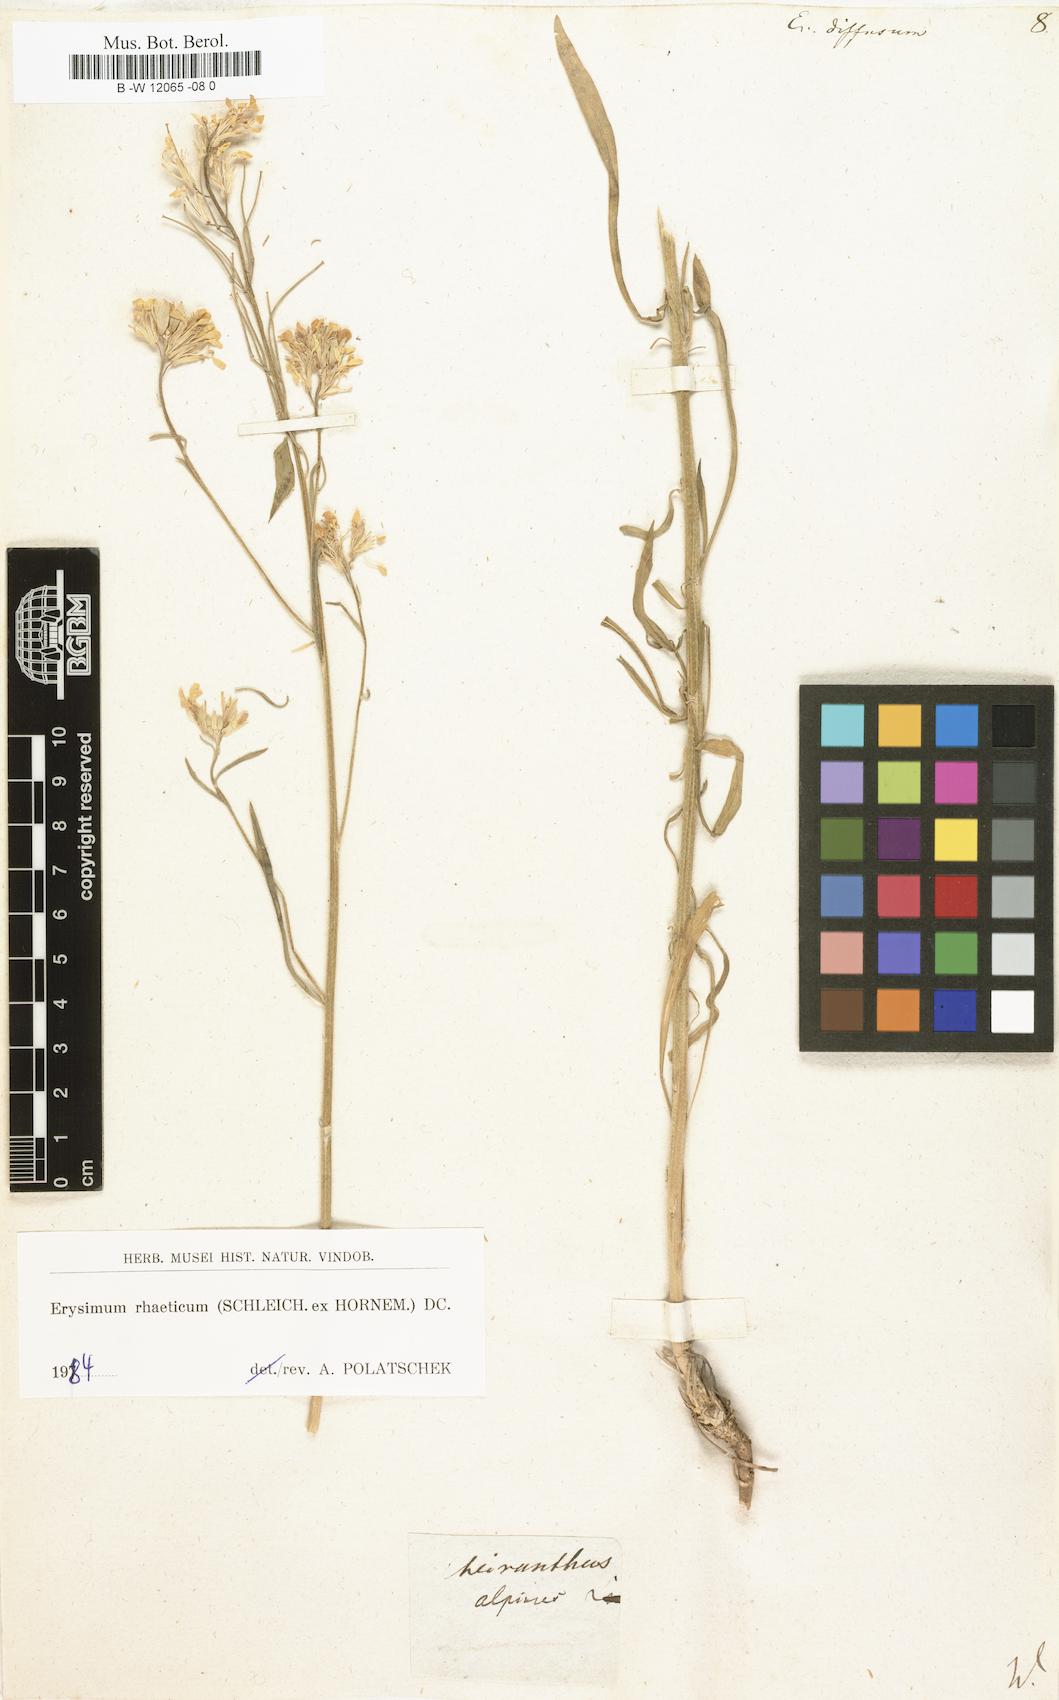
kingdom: Plantae
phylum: Tracheophyta
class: Magnoliopsida
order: Brassicales
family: Brassicaceae
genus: Erysimum
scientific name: Erysimum diffusum
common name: Diffuse wallflower
